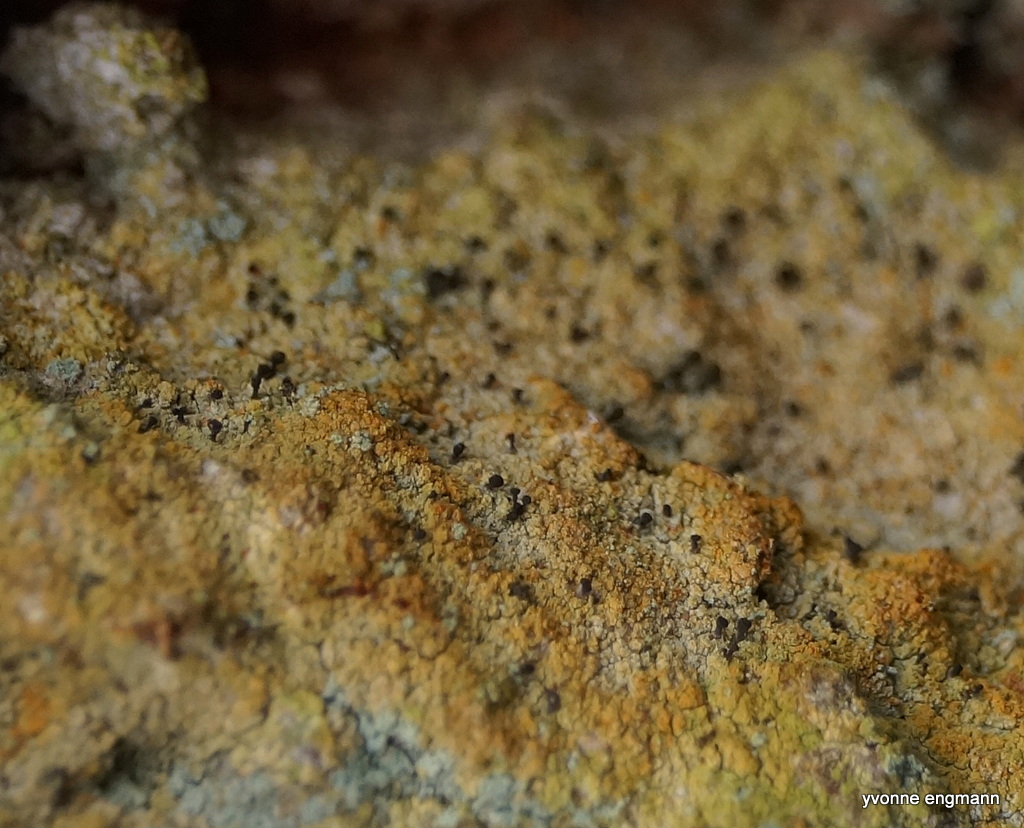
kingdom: Fungi
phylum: Ascomycota
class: Coniocybomycetes
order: Coniocybales
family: Coniocybaceae
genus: Chaenotheca
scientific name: Chaenotheca ferruginea
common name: rustbrun knappenålslav
